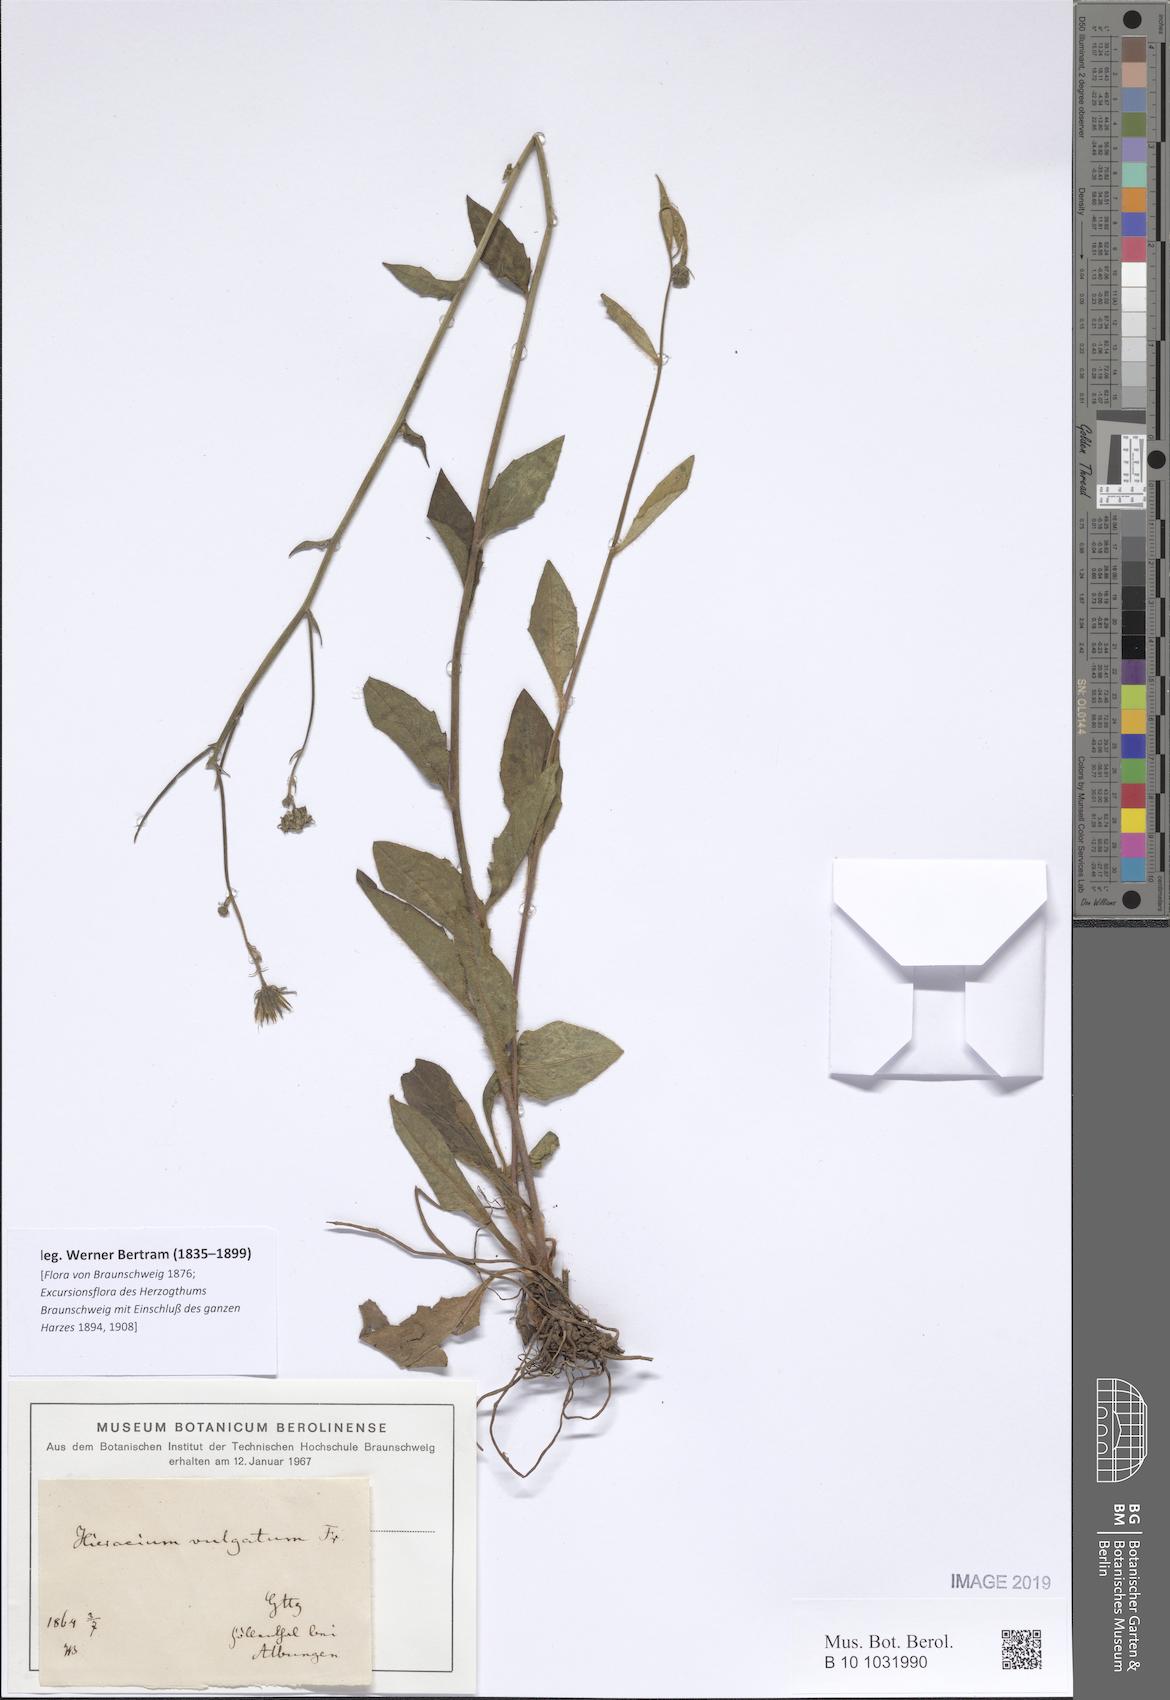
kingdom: Plantae
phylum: Tracheophyta
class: Magnoliopsida
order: Asterales
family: Asteraceae
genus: Hieracium
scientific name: Hieracium lachenalii
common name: Common hawkweed
